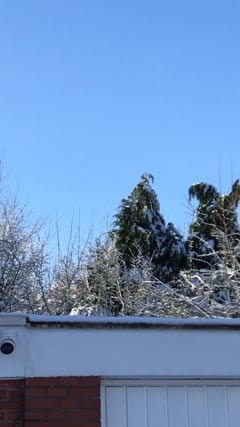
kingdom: Animalia
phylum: Chordata
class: Aves
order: Passeriformes
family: Turdidae
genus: Turdus
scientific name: Turdus philomelos
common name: Song thrush
